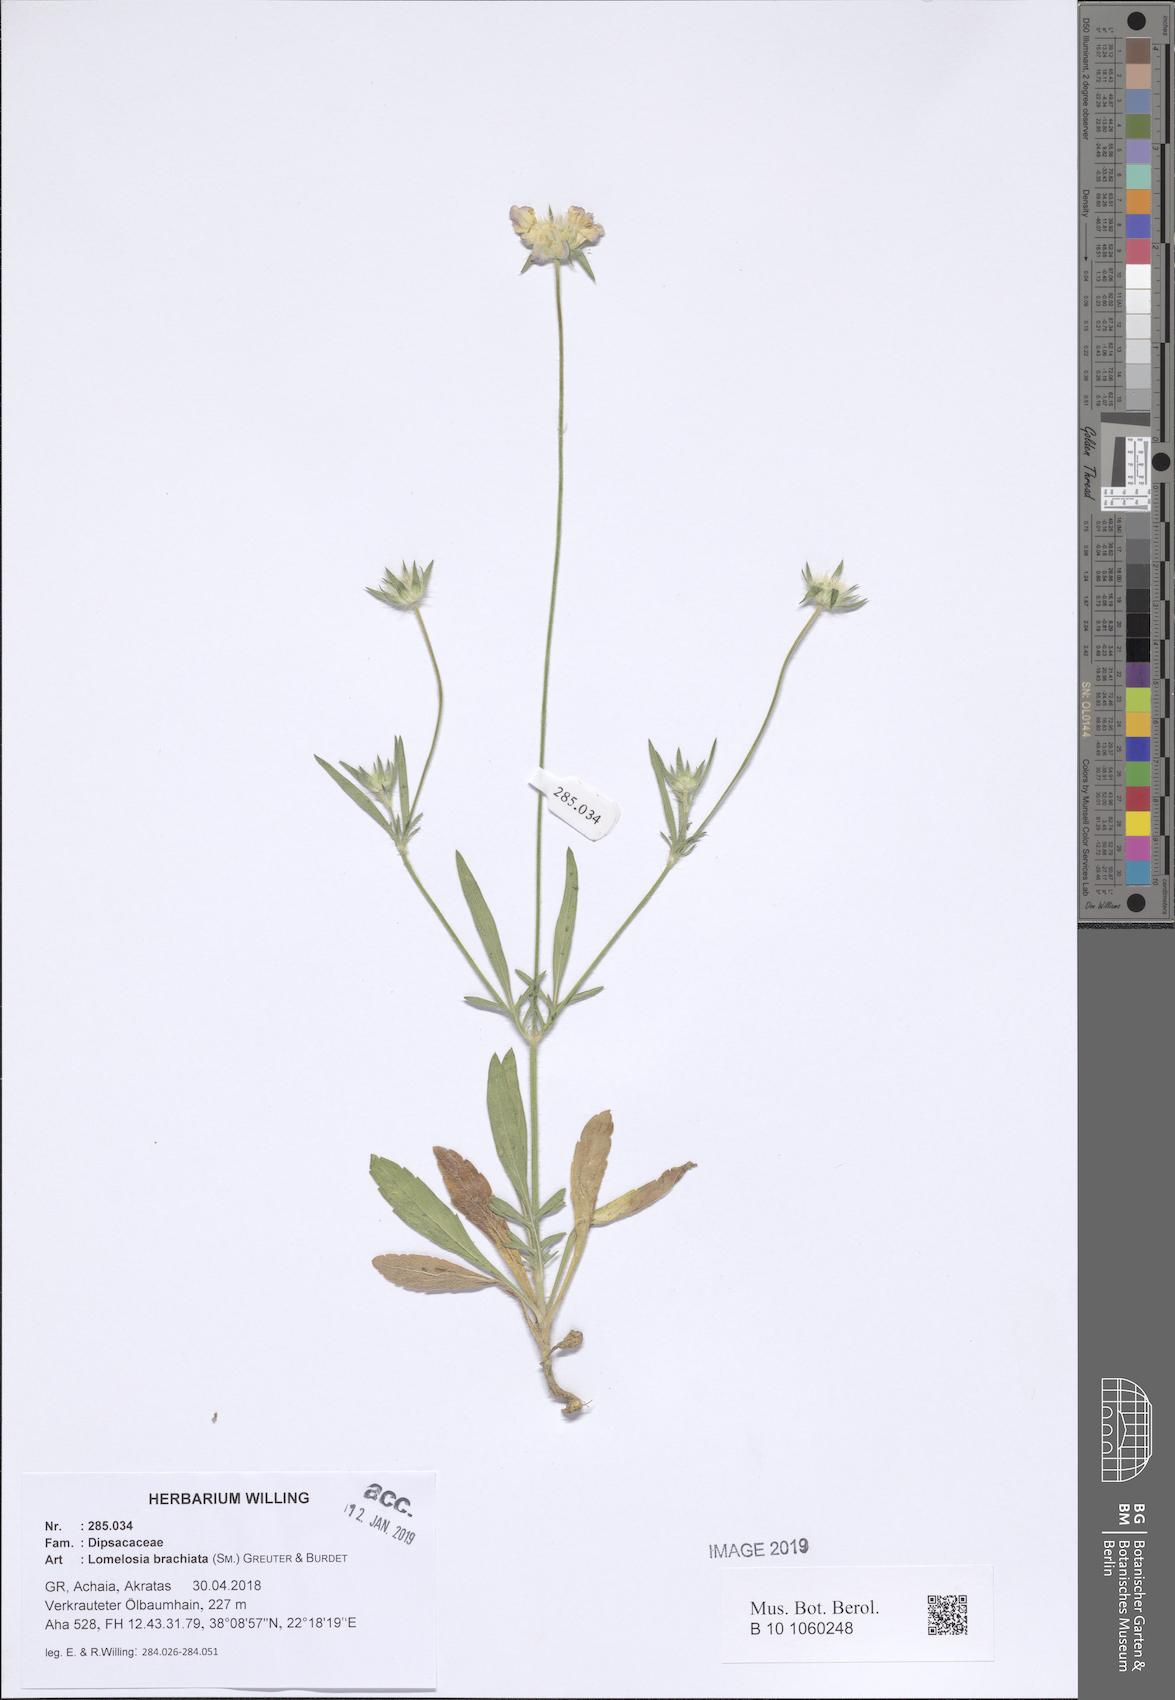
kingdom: Plantae
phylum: Tracheophyta
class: Magnoliopsida
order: Dipsacales
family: Caprifoliaceae
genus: Lomelosia
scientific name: Lomelosia brachiata
